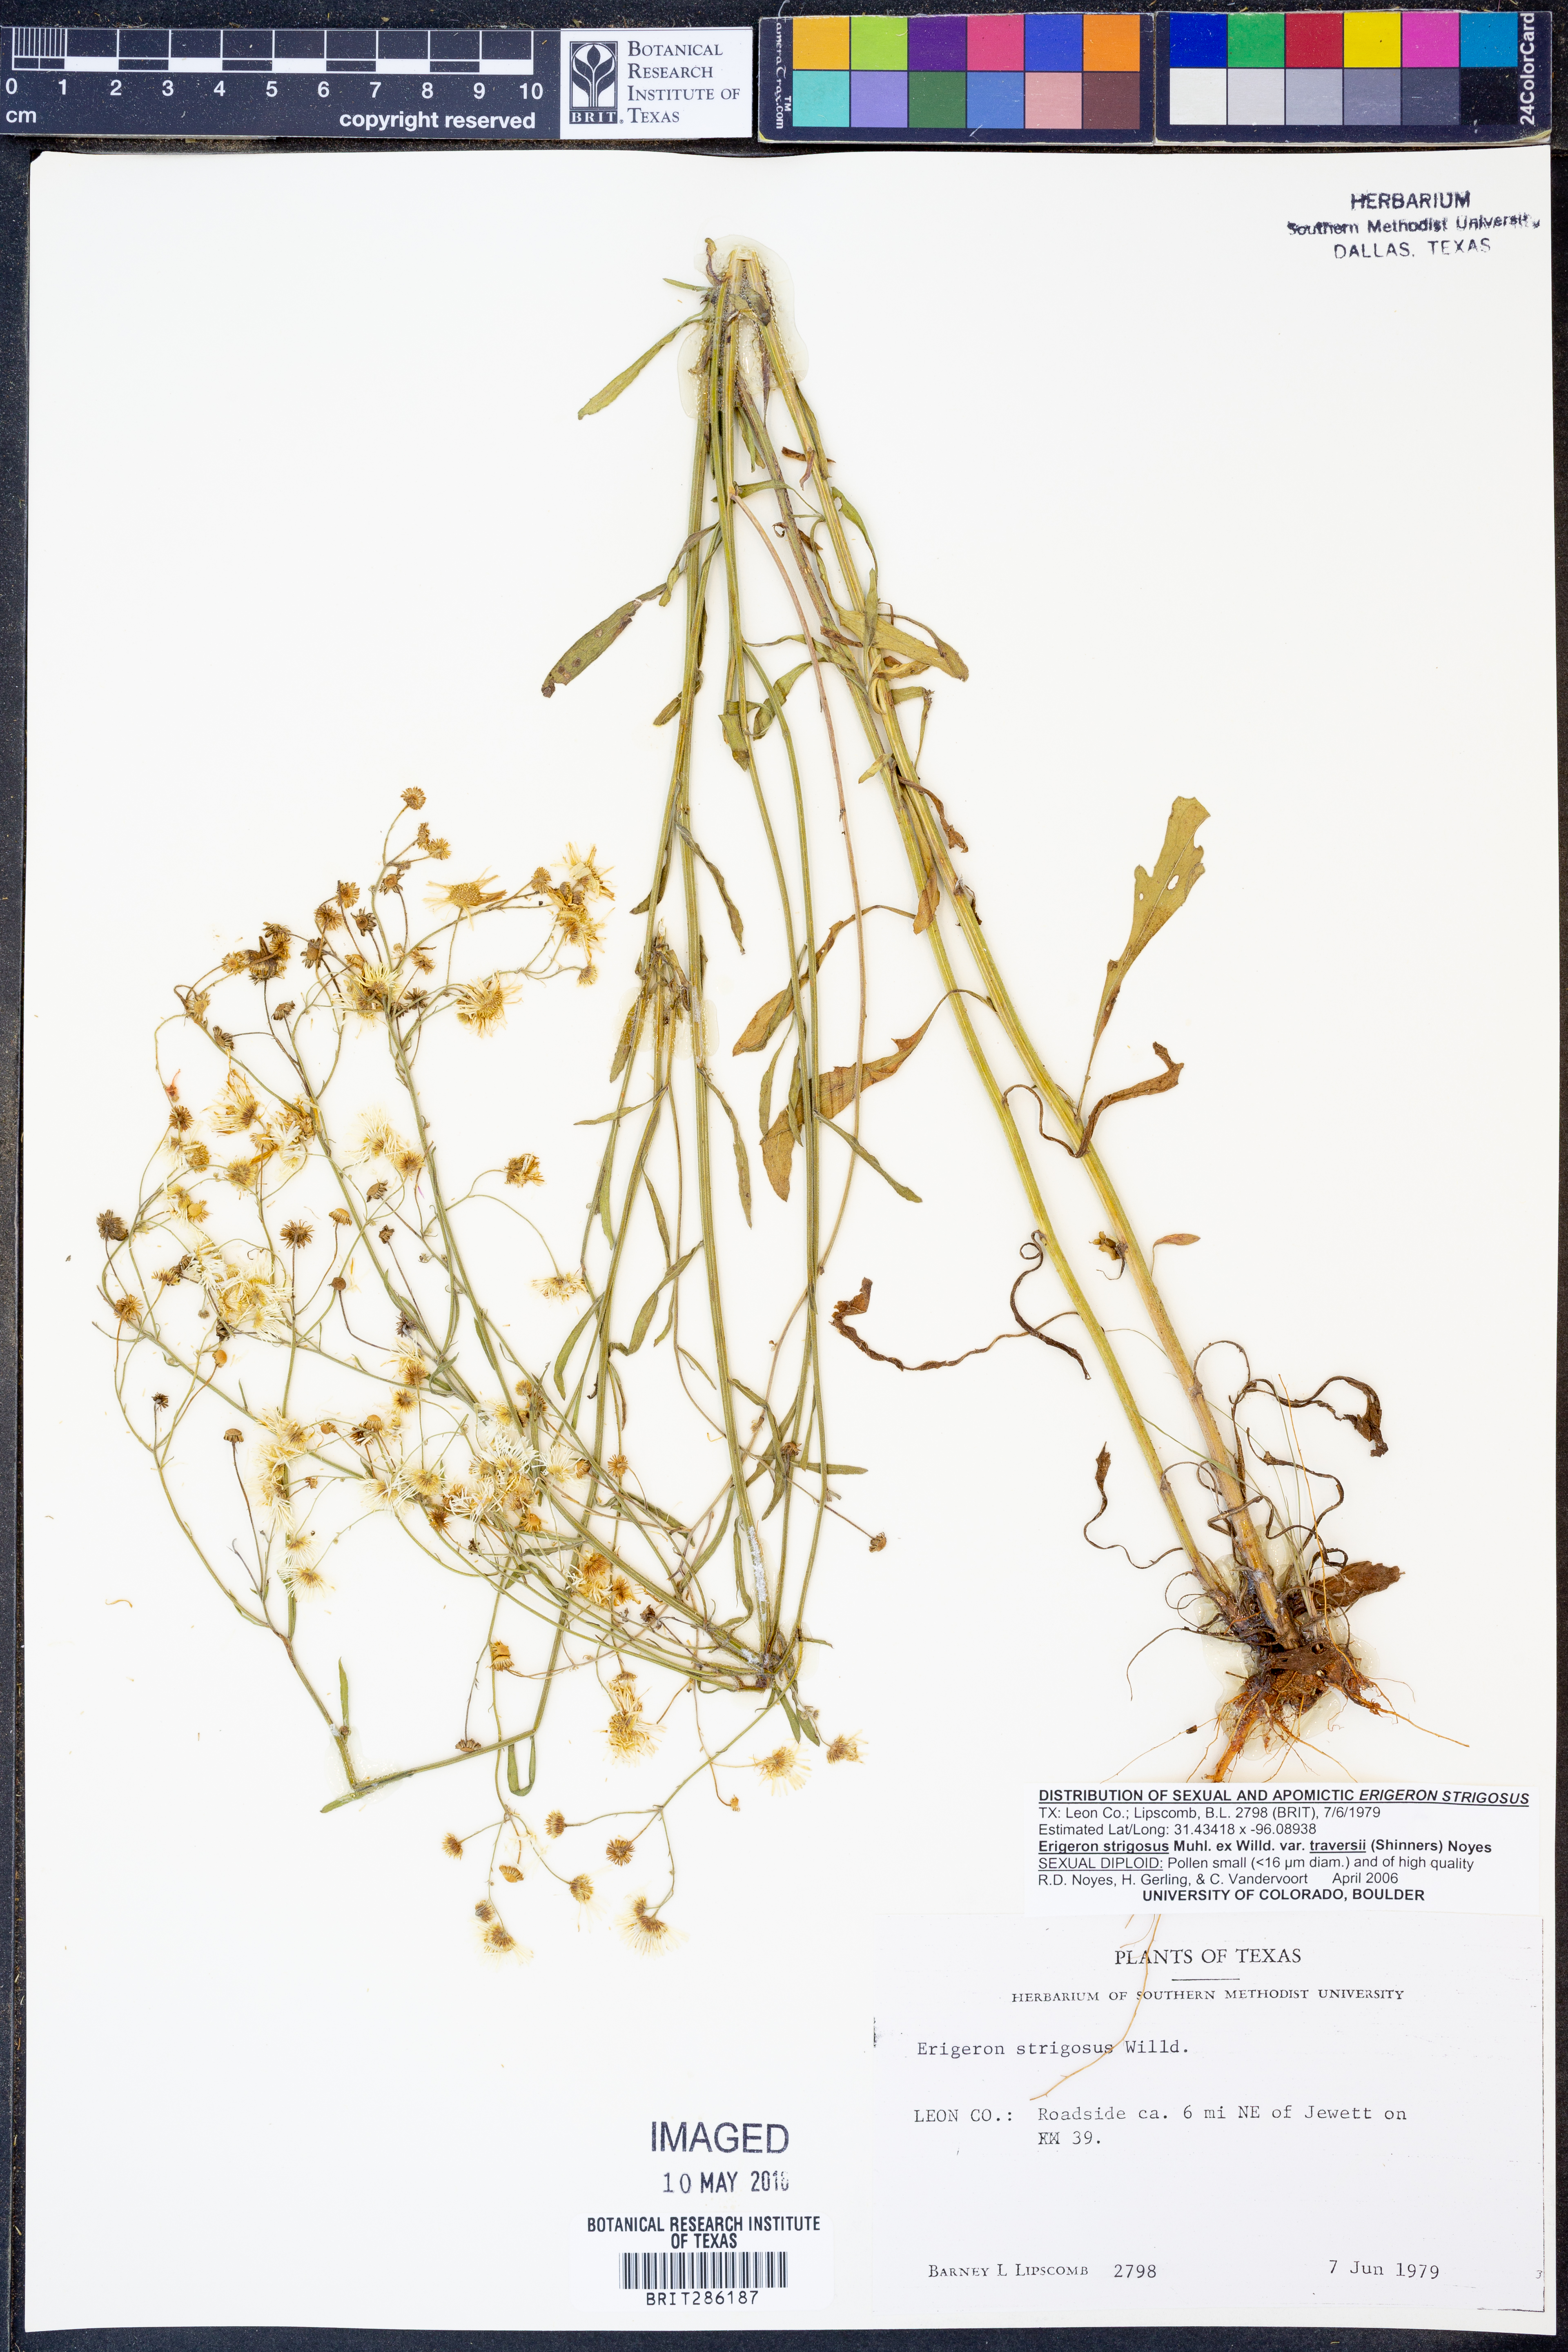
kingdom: Plantae
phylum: Tracheophyta
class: Magnoliopsida
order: Asterales
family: Asteraceae
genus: Erigeron
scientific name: Erigeron strigosus
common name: Common eastern fleabane
